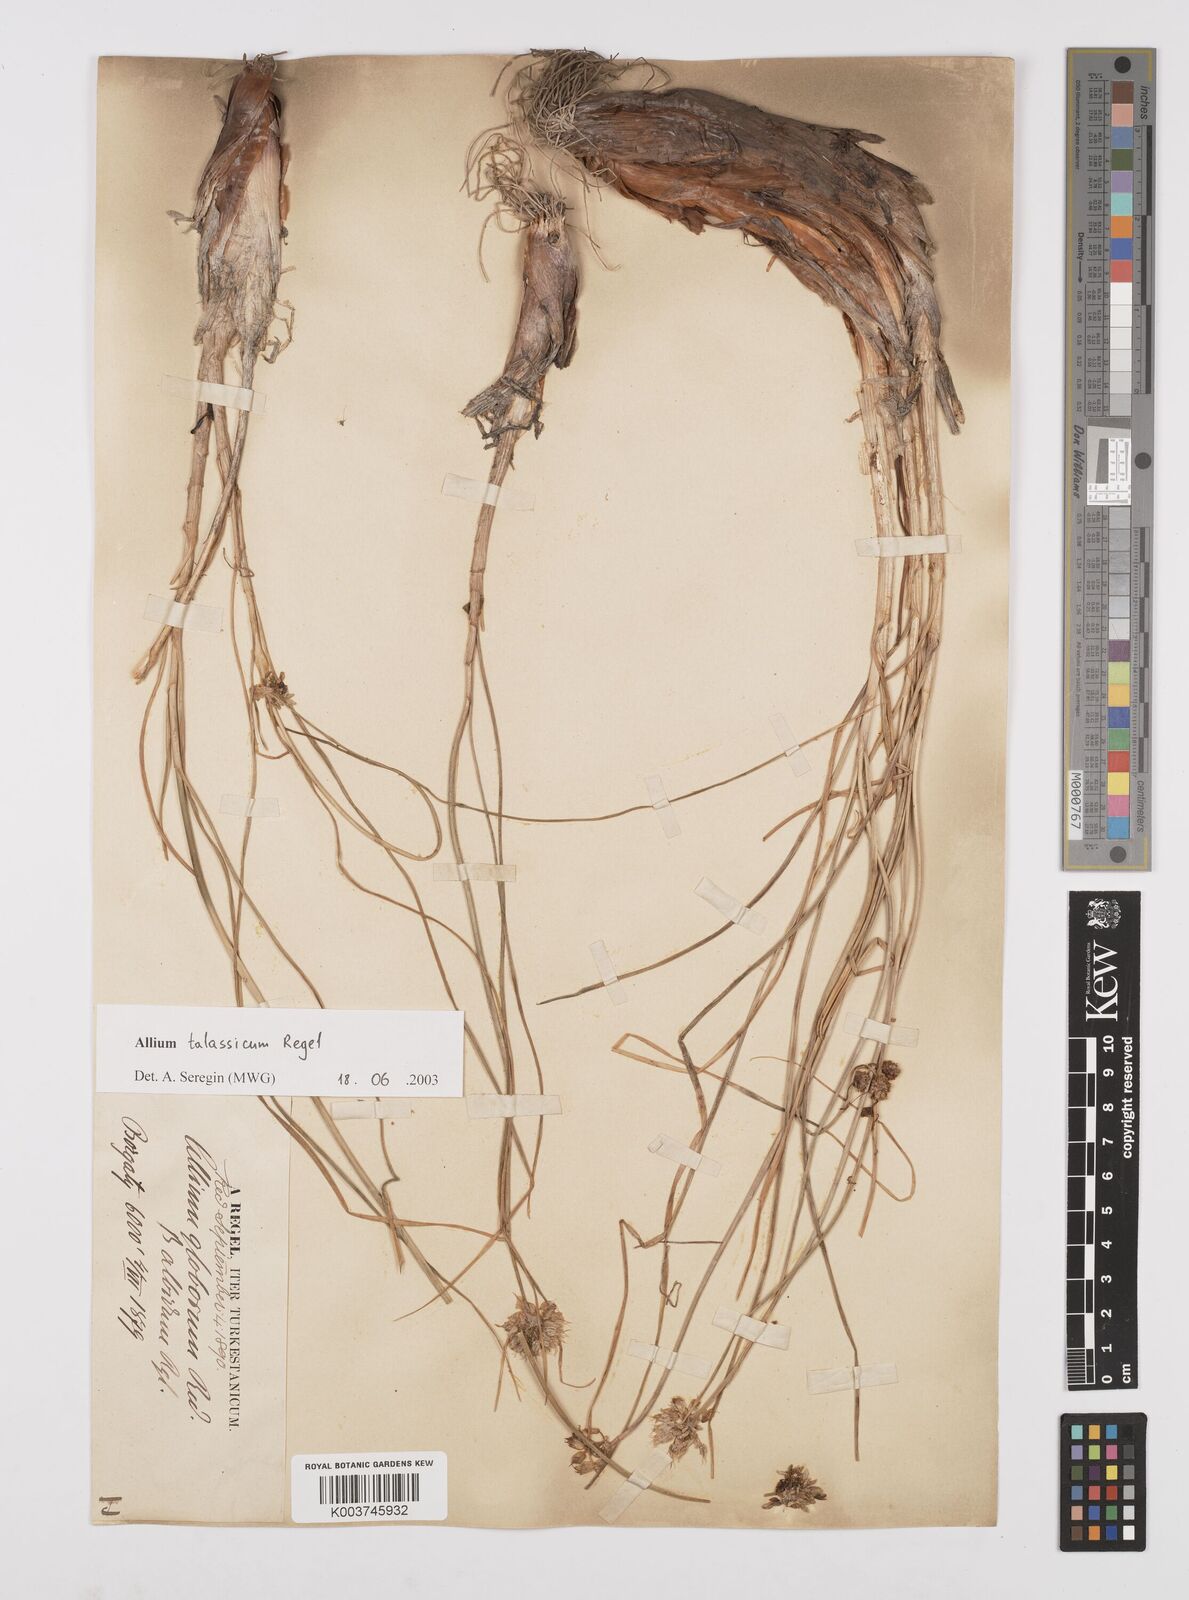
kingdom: Plantae
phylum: Tracheophyta
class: Liliopsida
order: Asparagales
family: Amaryllidaceae
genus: Allium
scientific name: Allium talassicum
